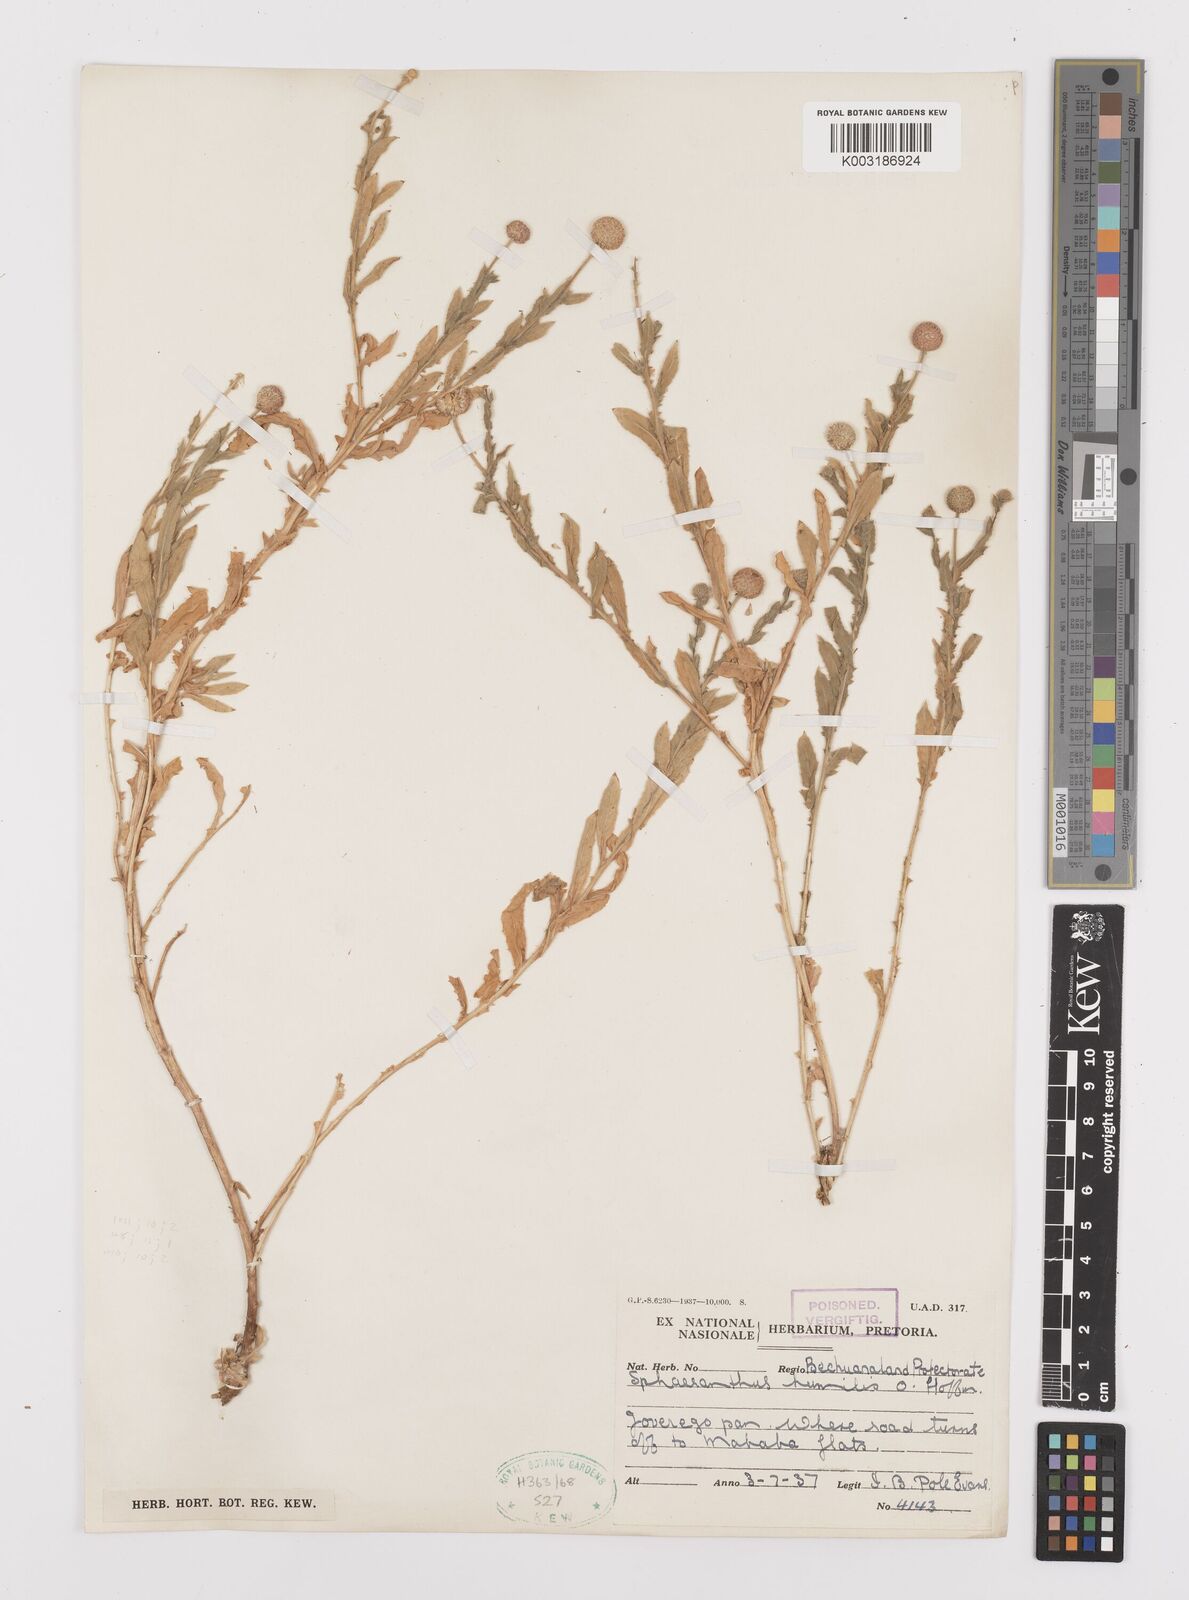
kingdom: Plantae
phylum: Tracheophyta
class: Magnoliopsida
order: Asterales
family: Asteraceae
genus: Sphaeranthus
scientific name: Sphaeranthus flexuosus
